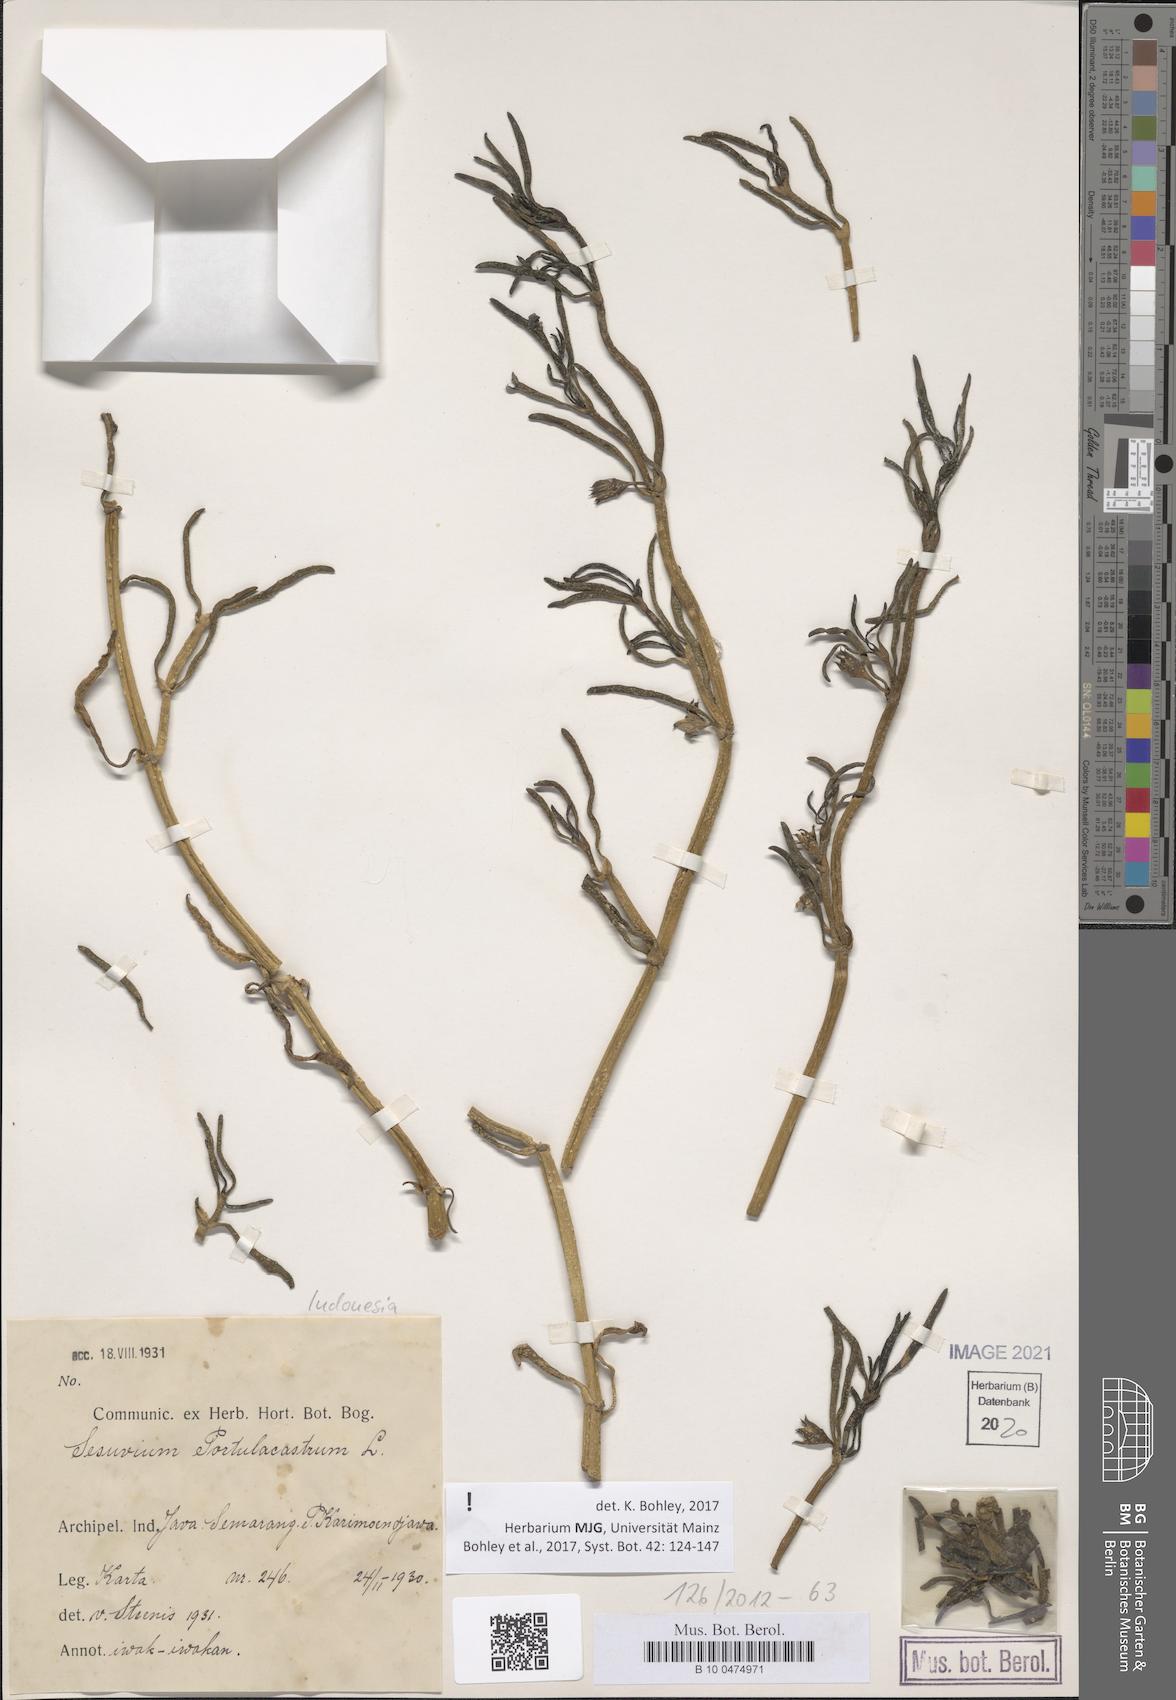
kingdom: Plantae
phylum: Tracheophyta
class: Magnoliopsida
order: Caryophyllales
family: Aizoaceae
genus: Sesuvium
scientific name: Sesuvium portulacastrum
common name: Sea-purslane
